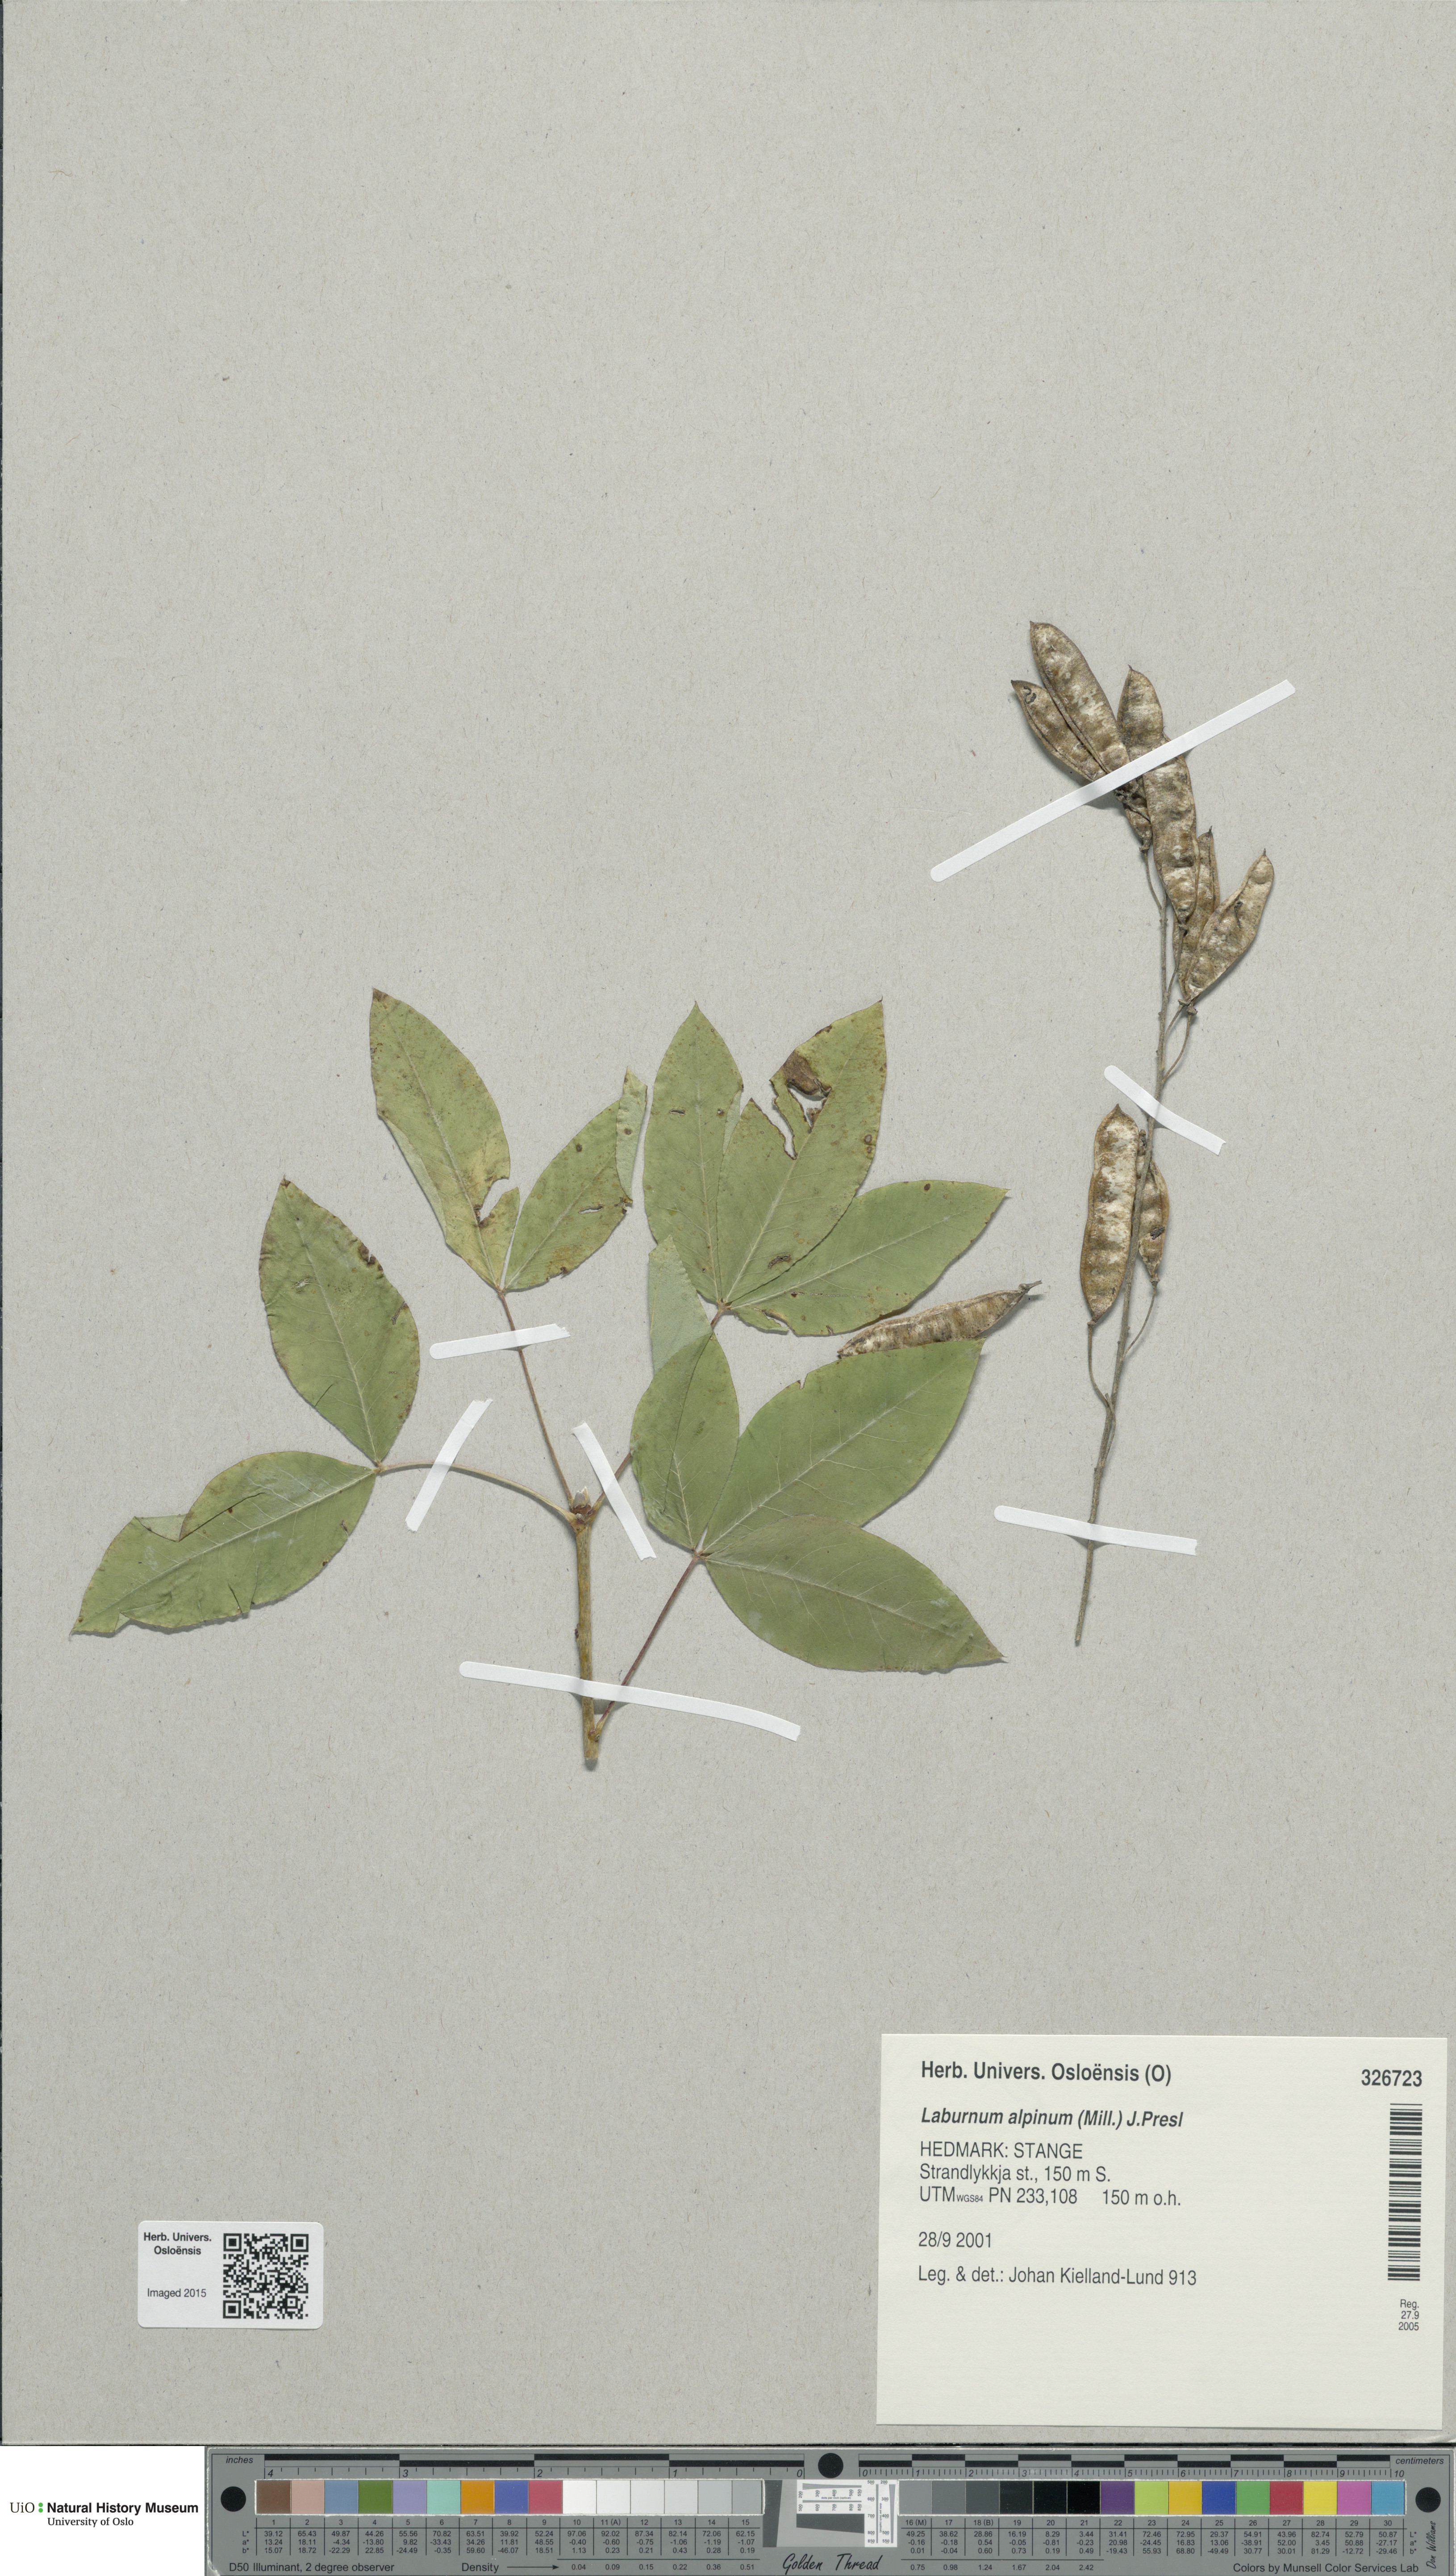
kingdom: Plantae
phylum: Tracheophyta
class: Magnoliopsida
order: Fabales
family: Fabaceae
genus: Laburnum
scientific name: Laburnum alpinum
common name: Scottish laburnum
